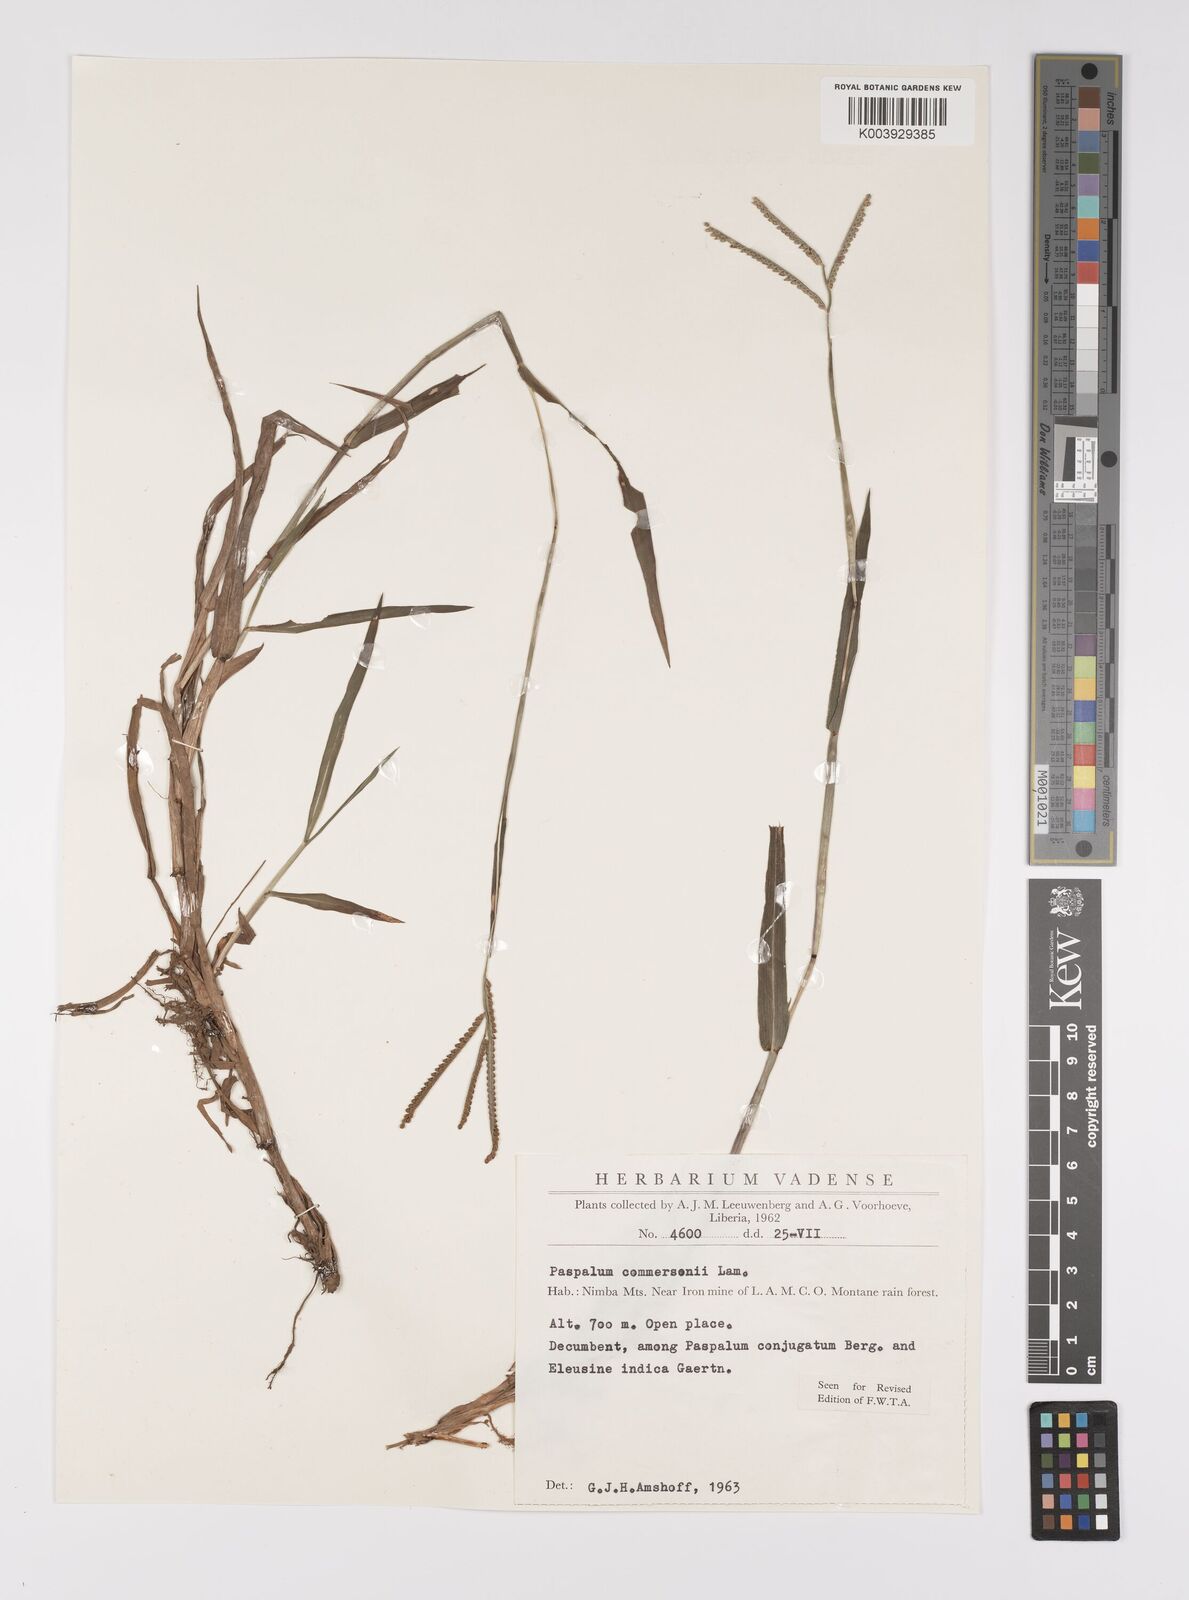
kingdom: Plantae
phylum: Tracheophyta
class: Liliopsida
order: Poales
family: Poaceae
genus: Paspalum
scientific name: Paspalum scrobiculatum
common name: Kodo millet
